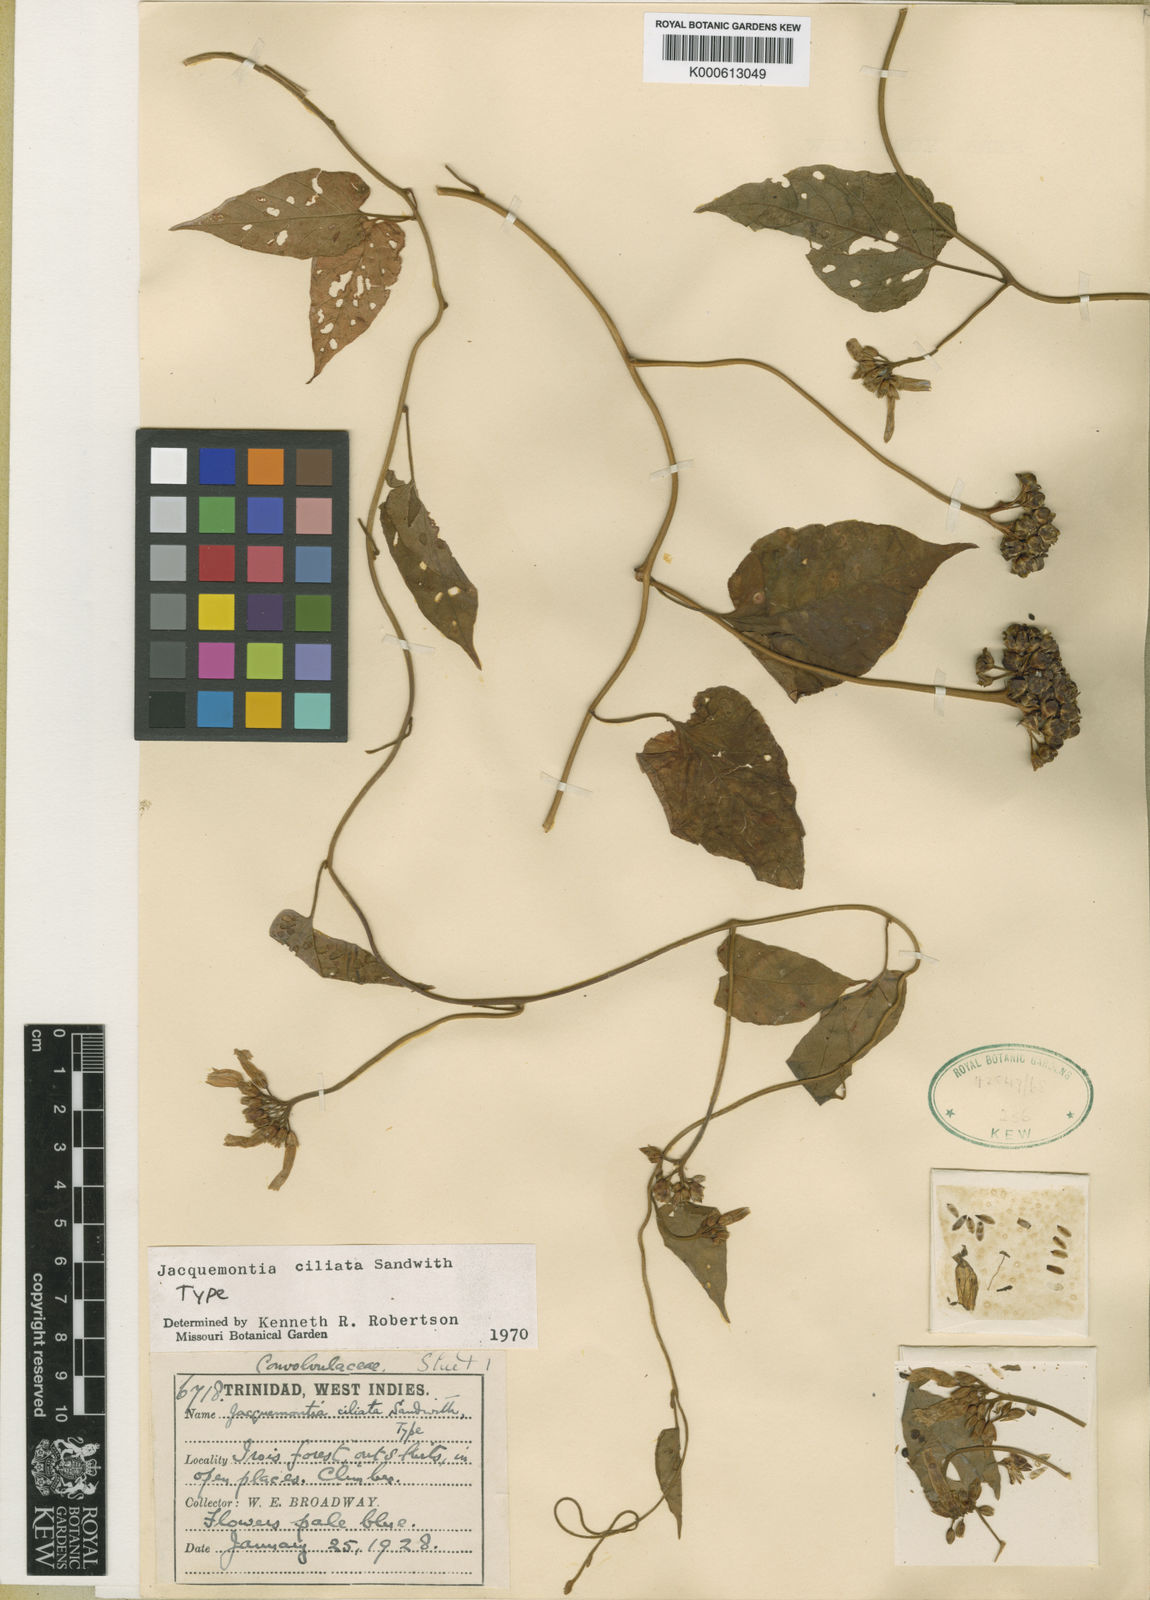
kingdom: Plantae
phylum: Tracheophyta
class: Magnoliopsida
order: Solanales
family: Convolvulaceae
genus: Jacquemontia
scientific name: Jacquemontia gabrielii
